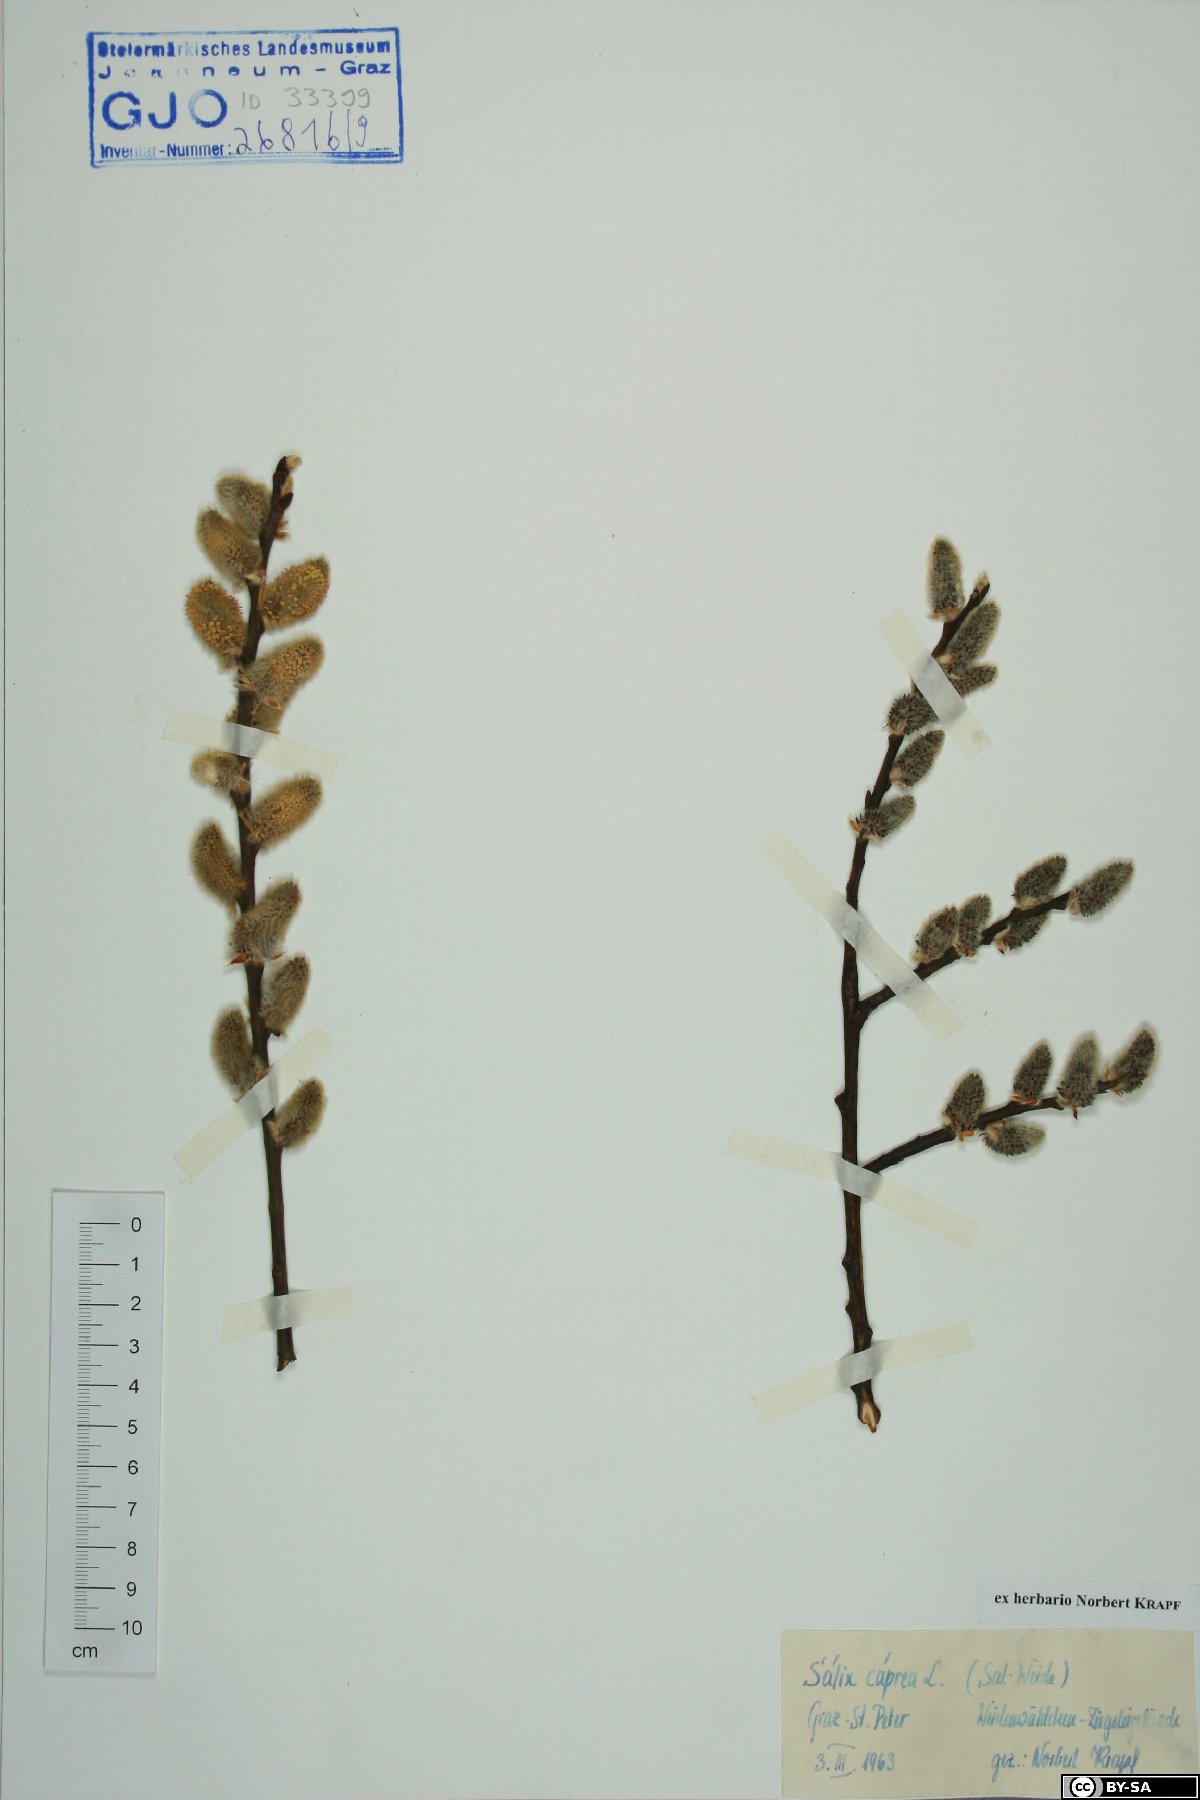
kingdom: Plantae
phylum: Tracheophyta
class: Magnoliopsida
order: Malpighiales
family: Salicaceae
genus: Salix
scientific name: Salix caprea
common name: Goat willow
